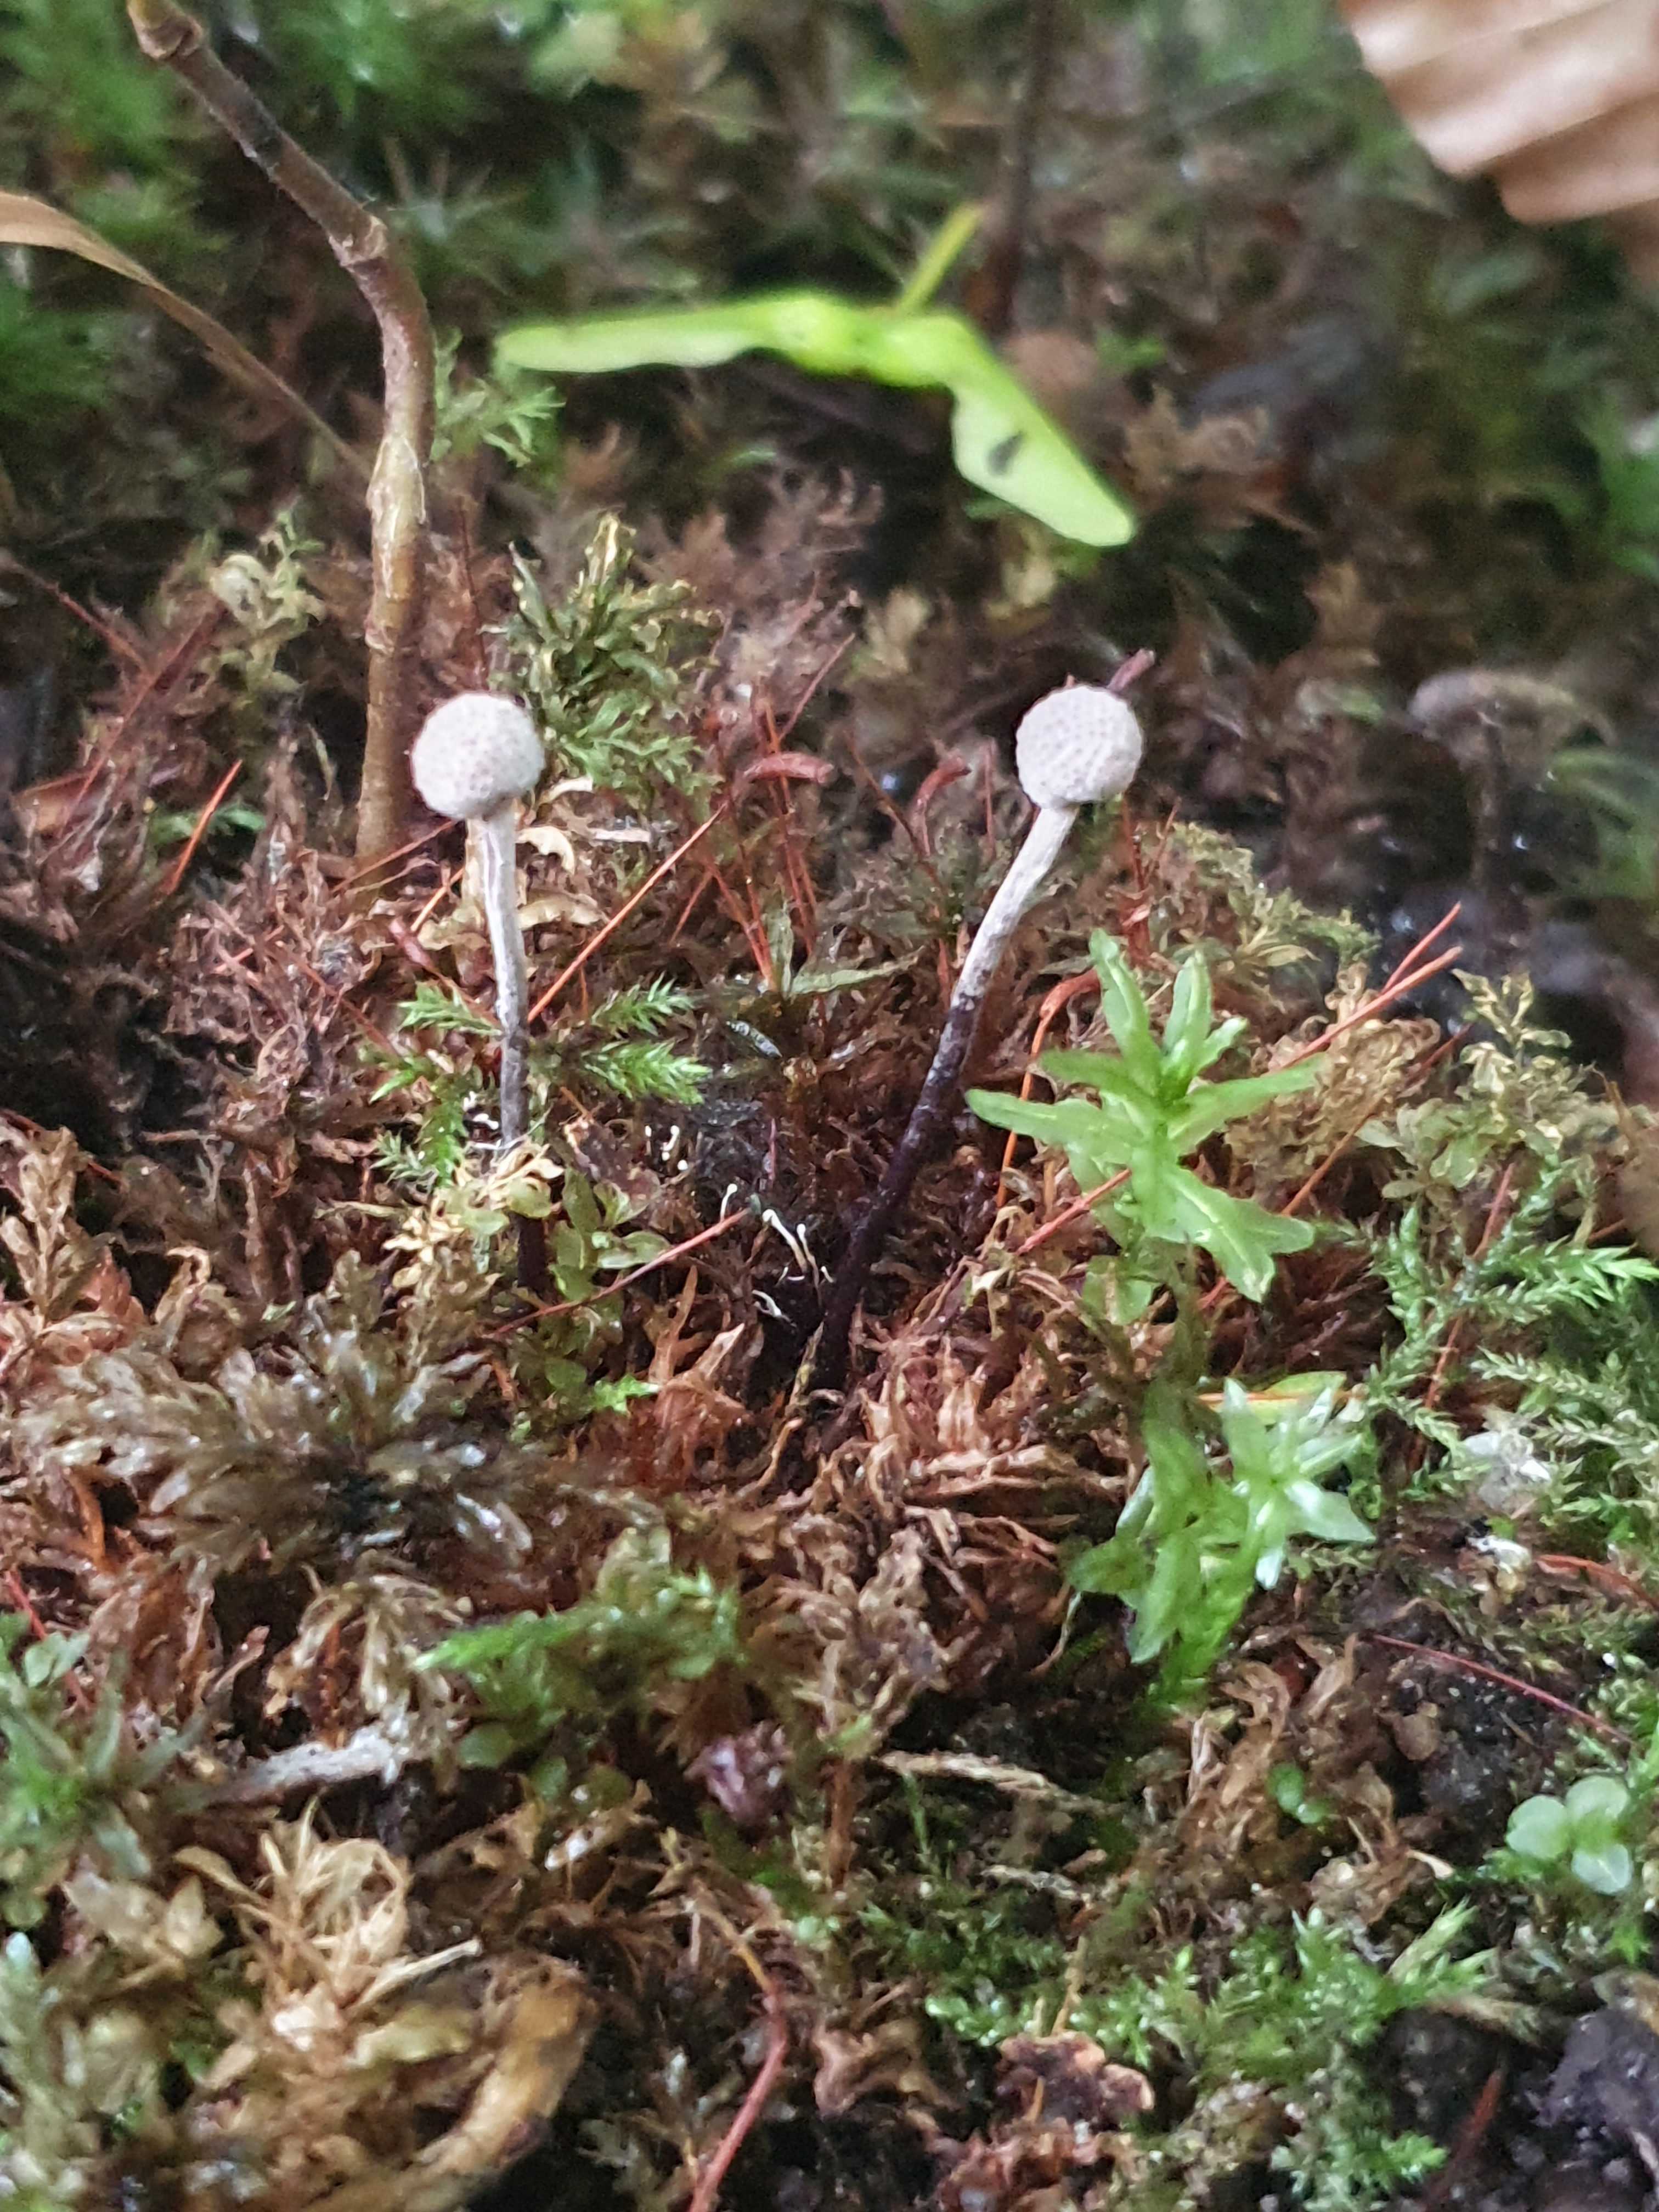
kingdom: Fungi
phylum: Ascomycota
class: Sordariomycetes
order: Hypocreales
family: Ophiocordycipitaceae
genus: Ophiocordyceps
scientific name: Ophiocordyceps entomorrhiza
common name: grå snyltekølle
